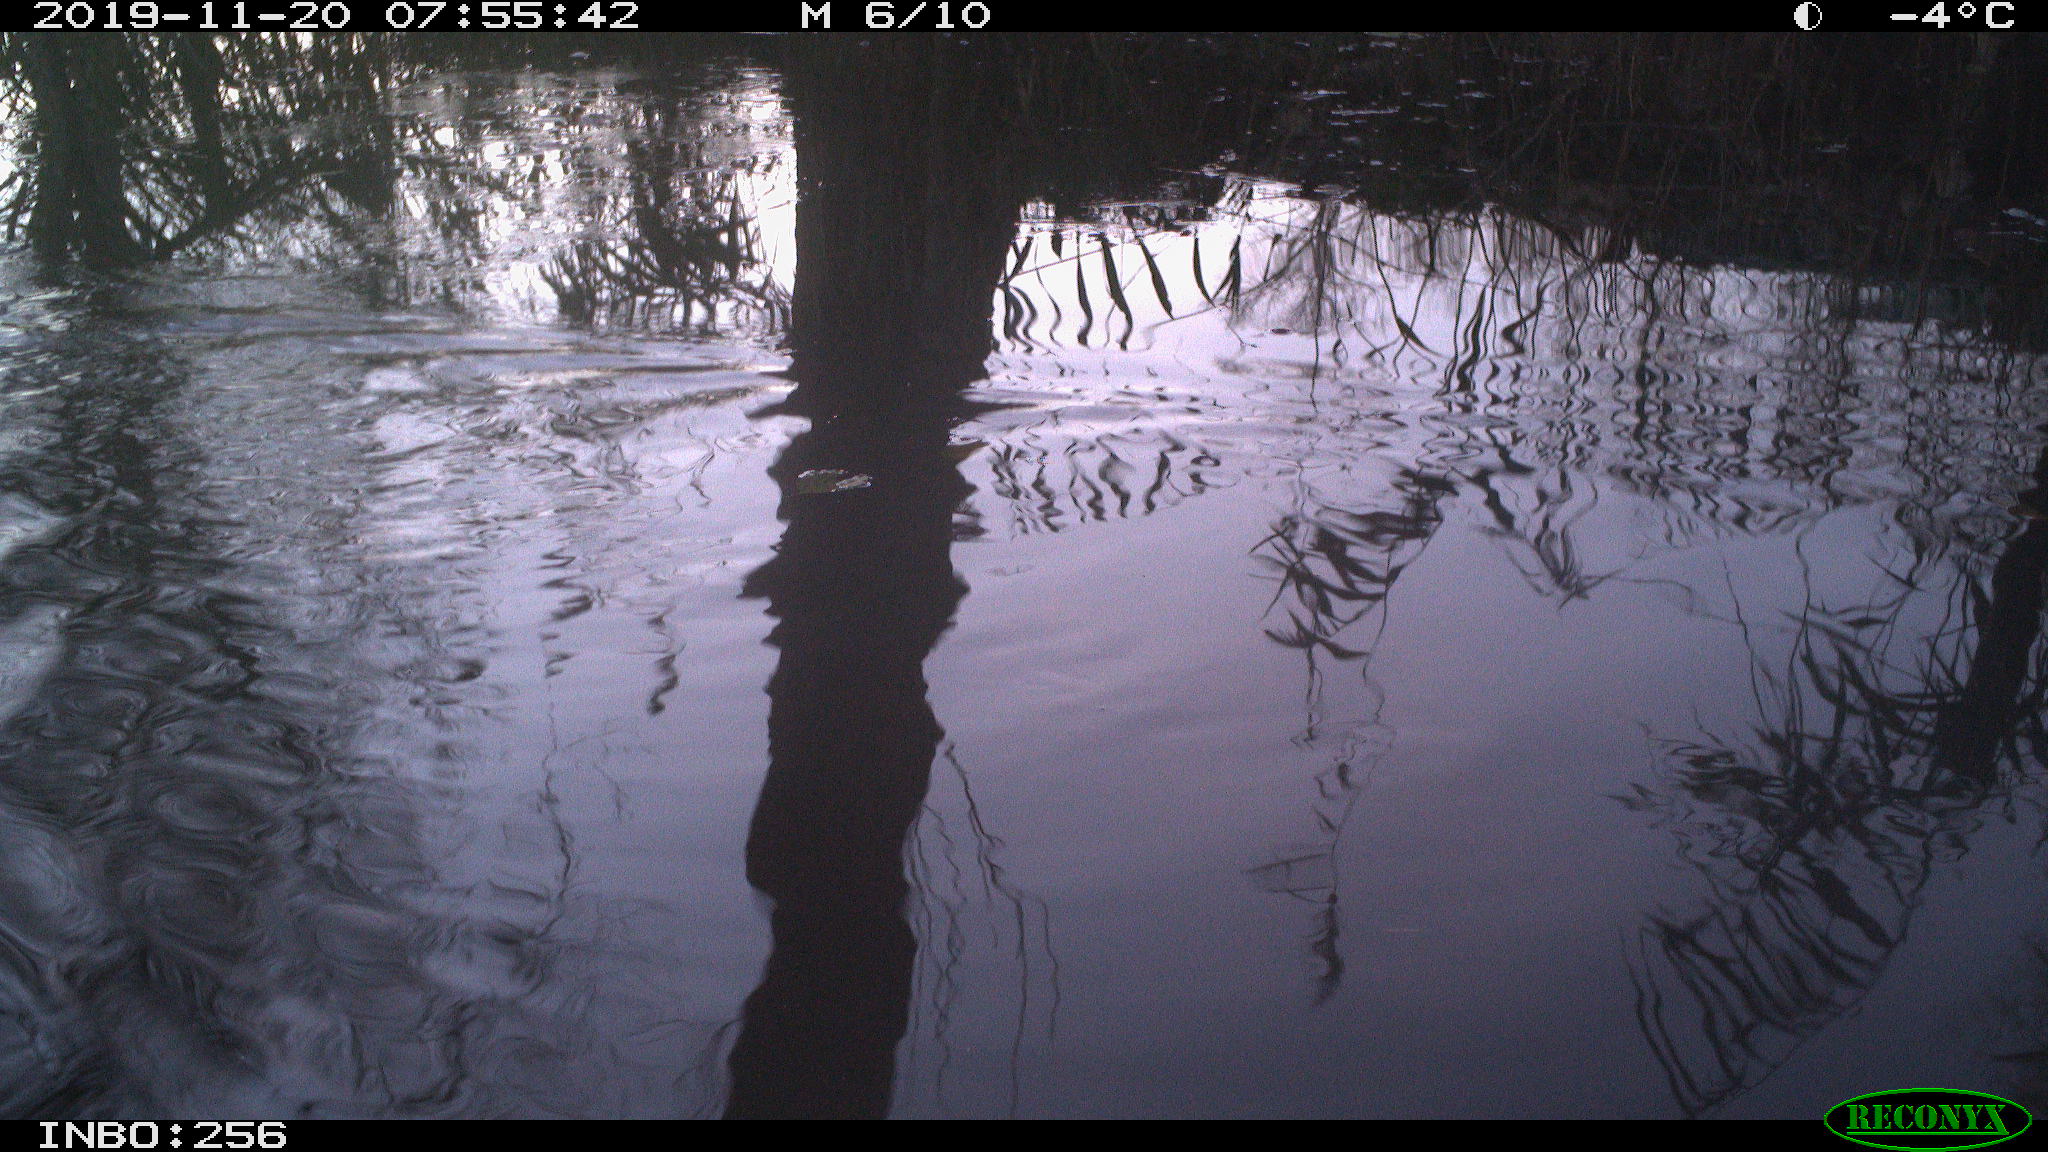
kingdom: Animalia
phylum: Chordata
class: Aves
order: Gruiformes
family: Rallidae
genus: Gallinula
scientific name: Gallinula chloropus
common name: Common moorhen
